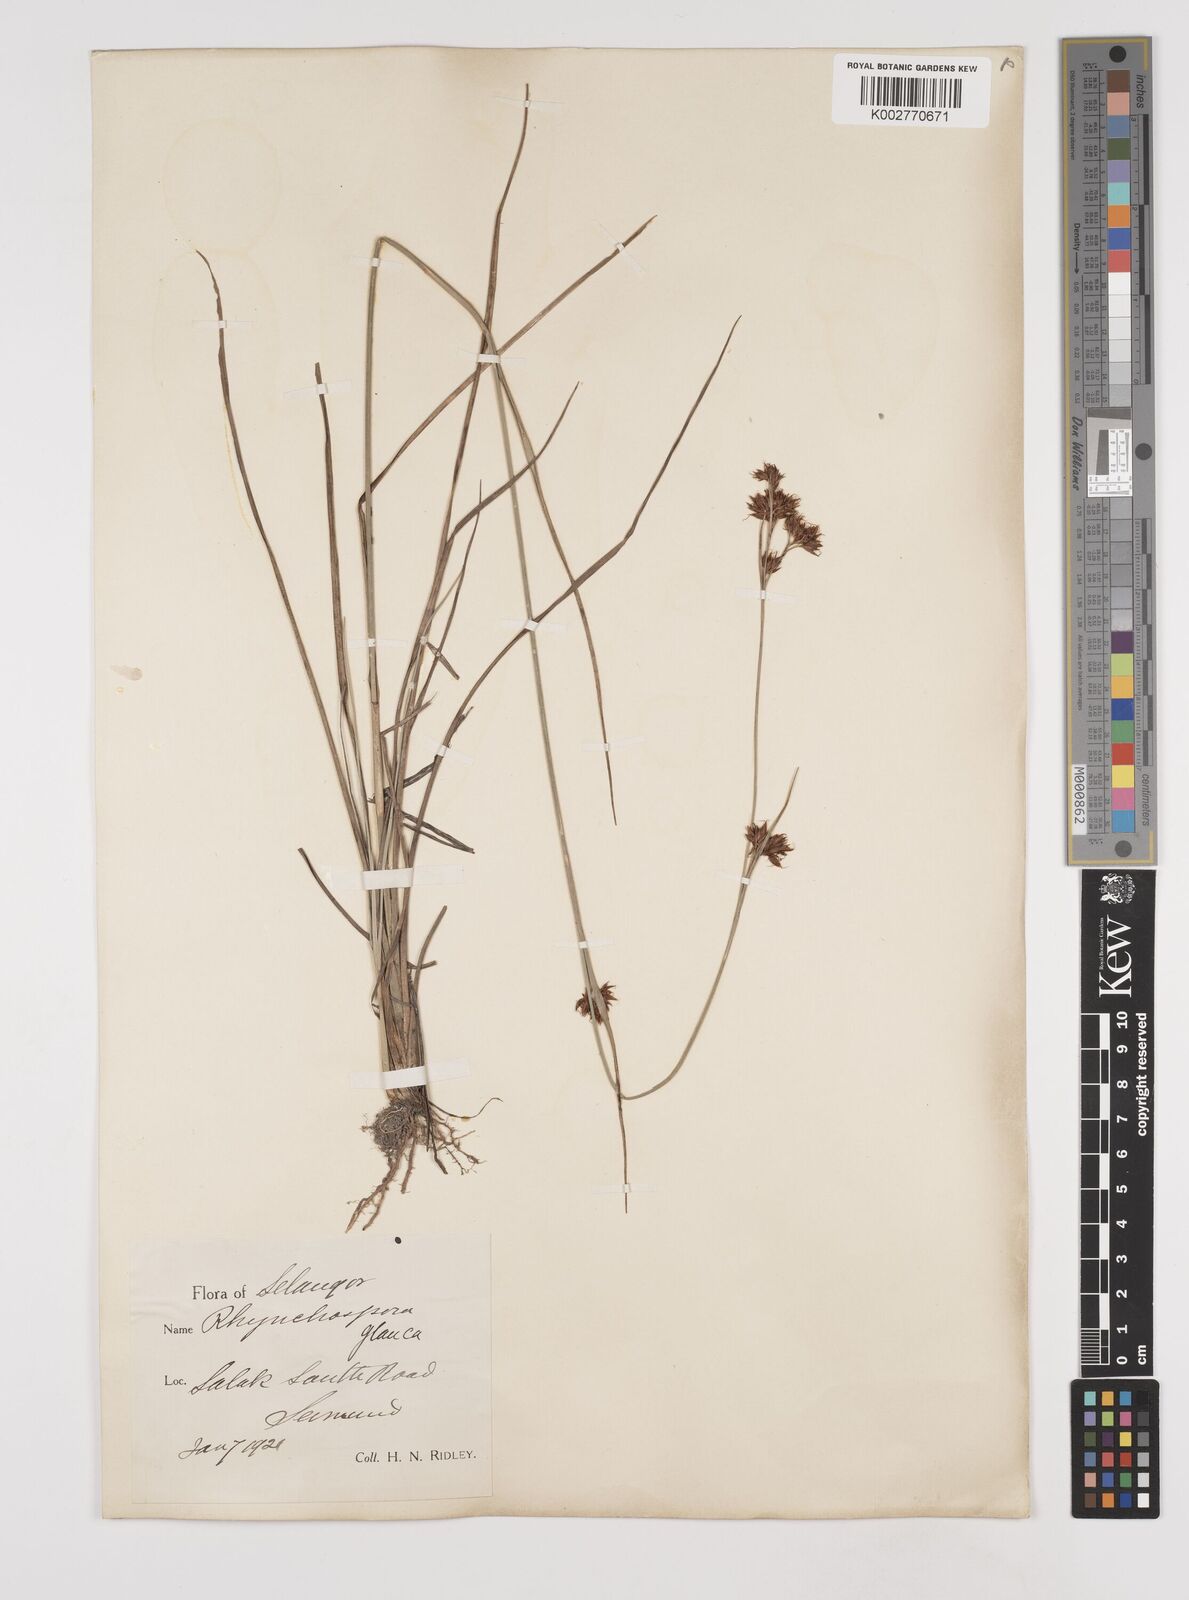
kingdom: Plantae
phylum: Tracheophyta
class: Liliopsida
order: Poales
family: Cyperaceae
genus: Rhynchospora
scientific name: Rhynchospora rugosa
